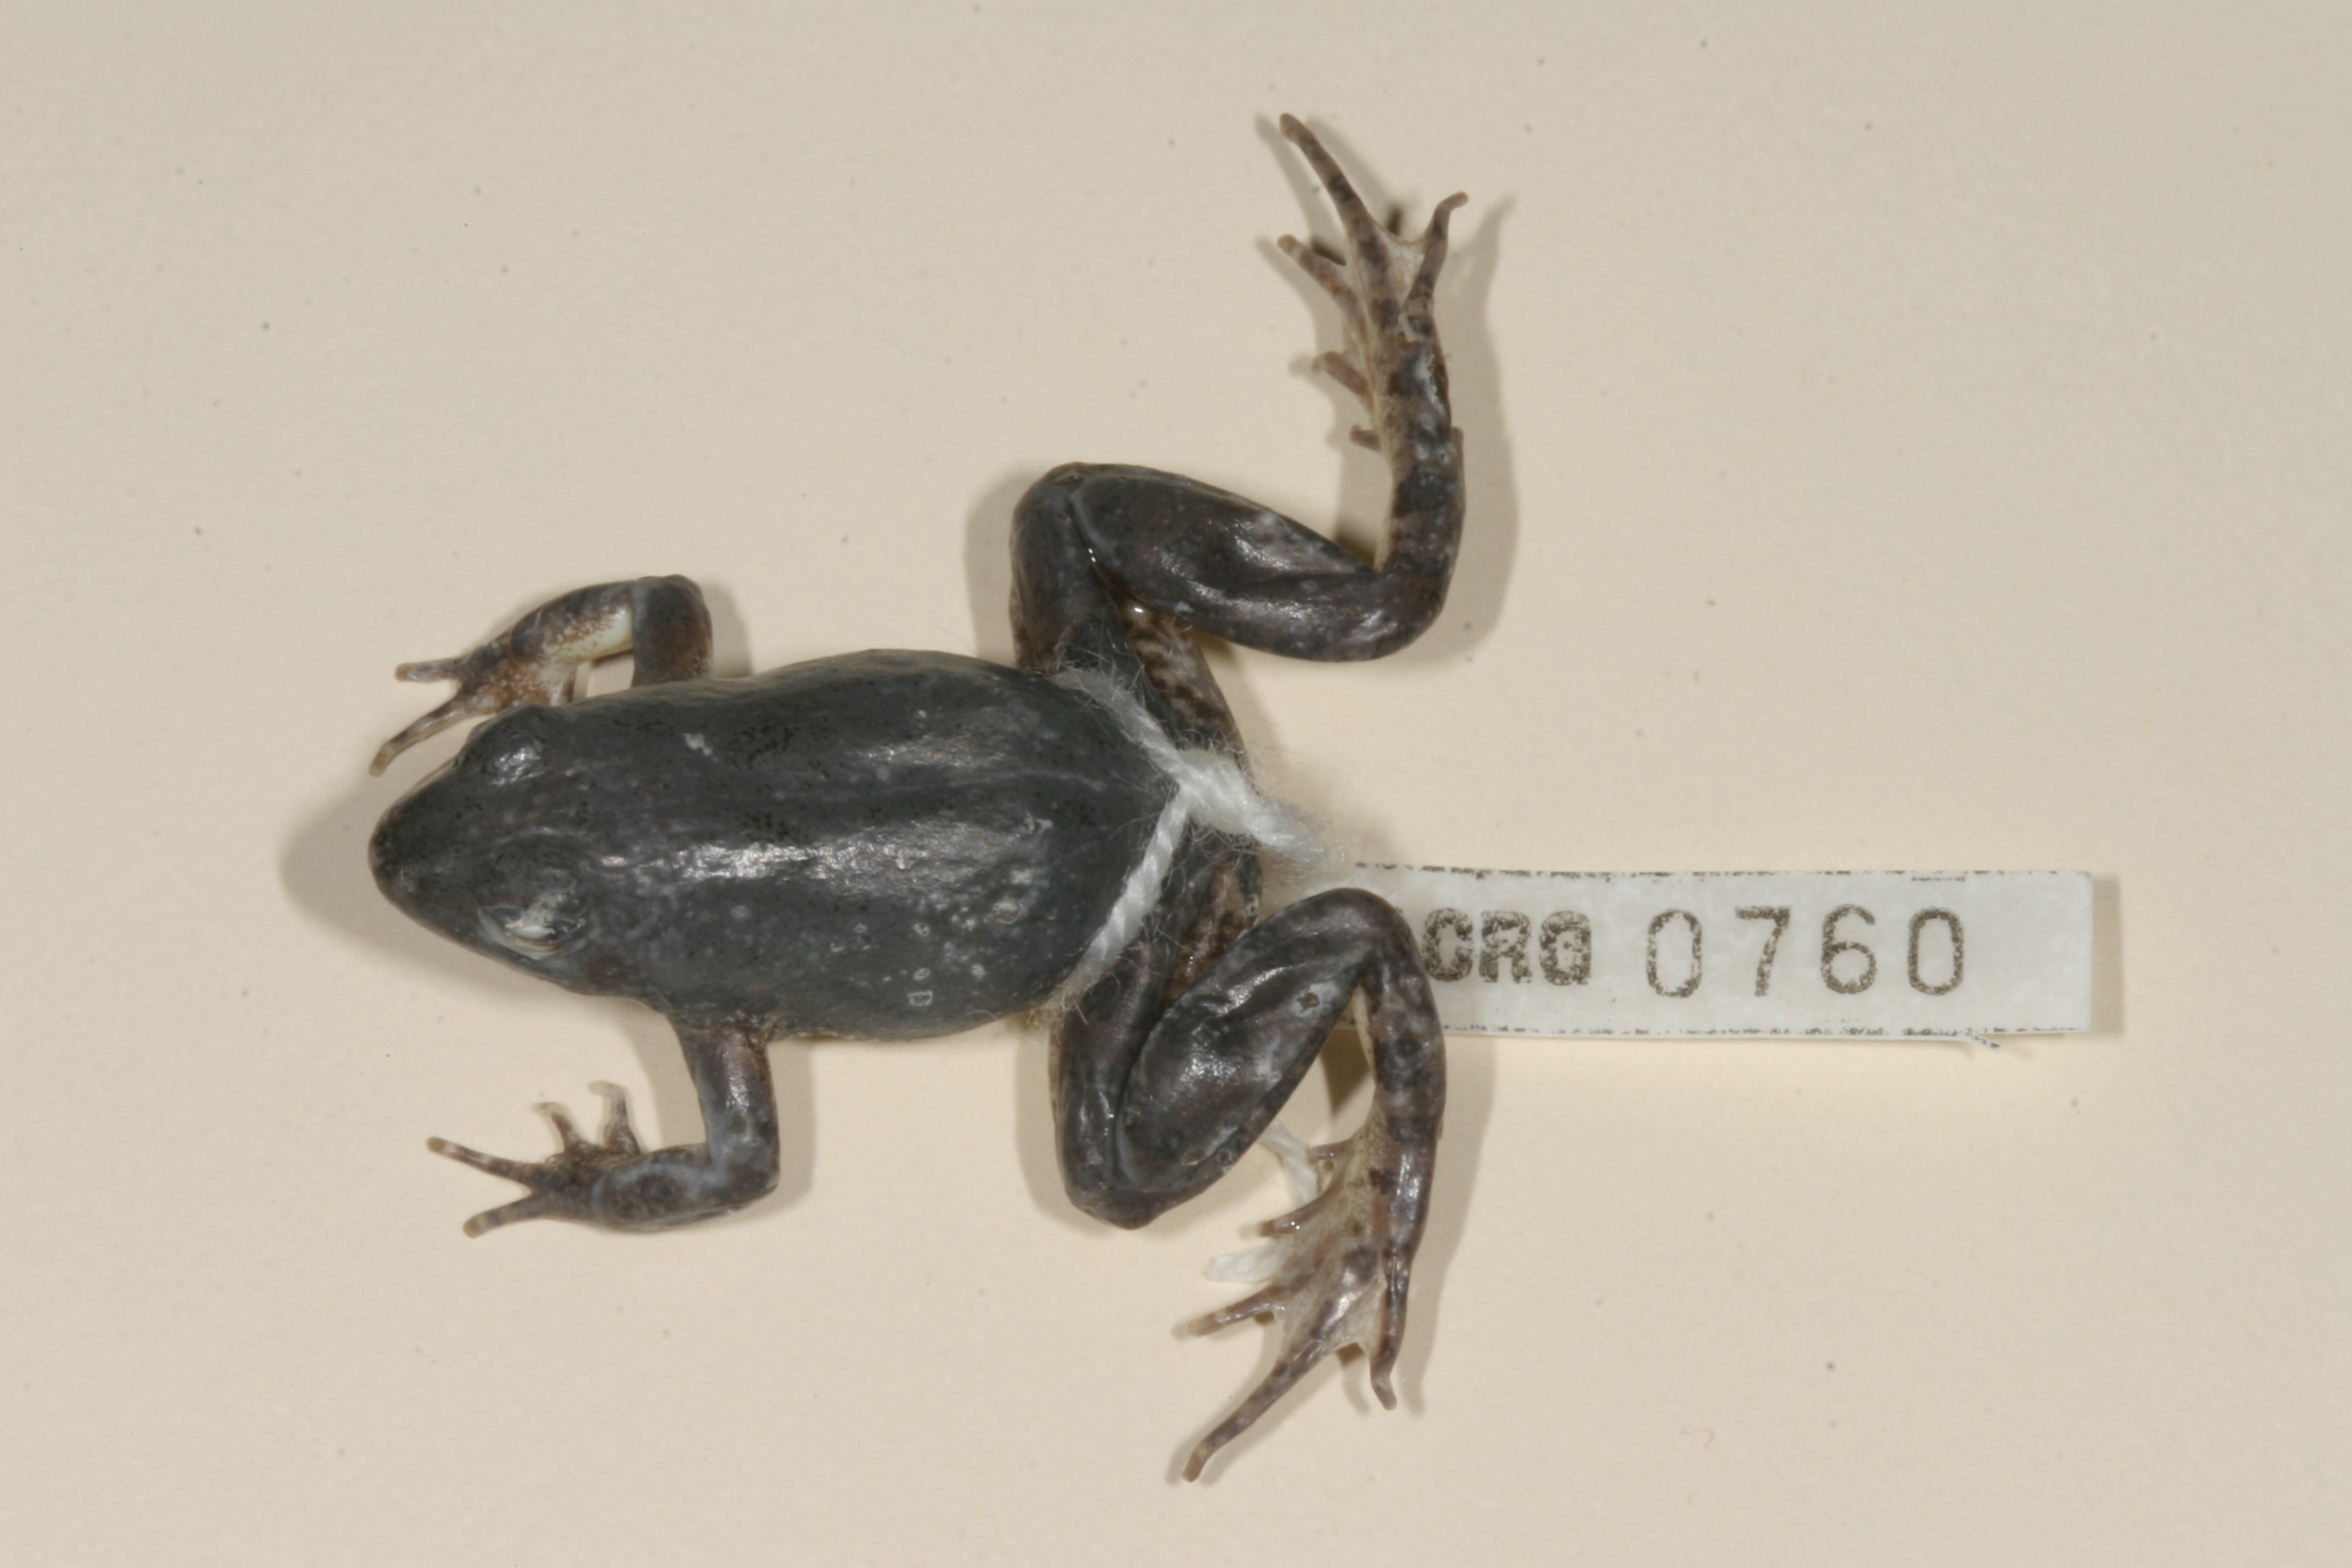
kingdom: Animalia
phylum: Chordata
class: Amphibia
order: Anura
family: Phrynobatrachidae
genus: Phrynobatrachus
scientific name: Phrynobatrachus natalensis
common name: Snoring puddle frog
